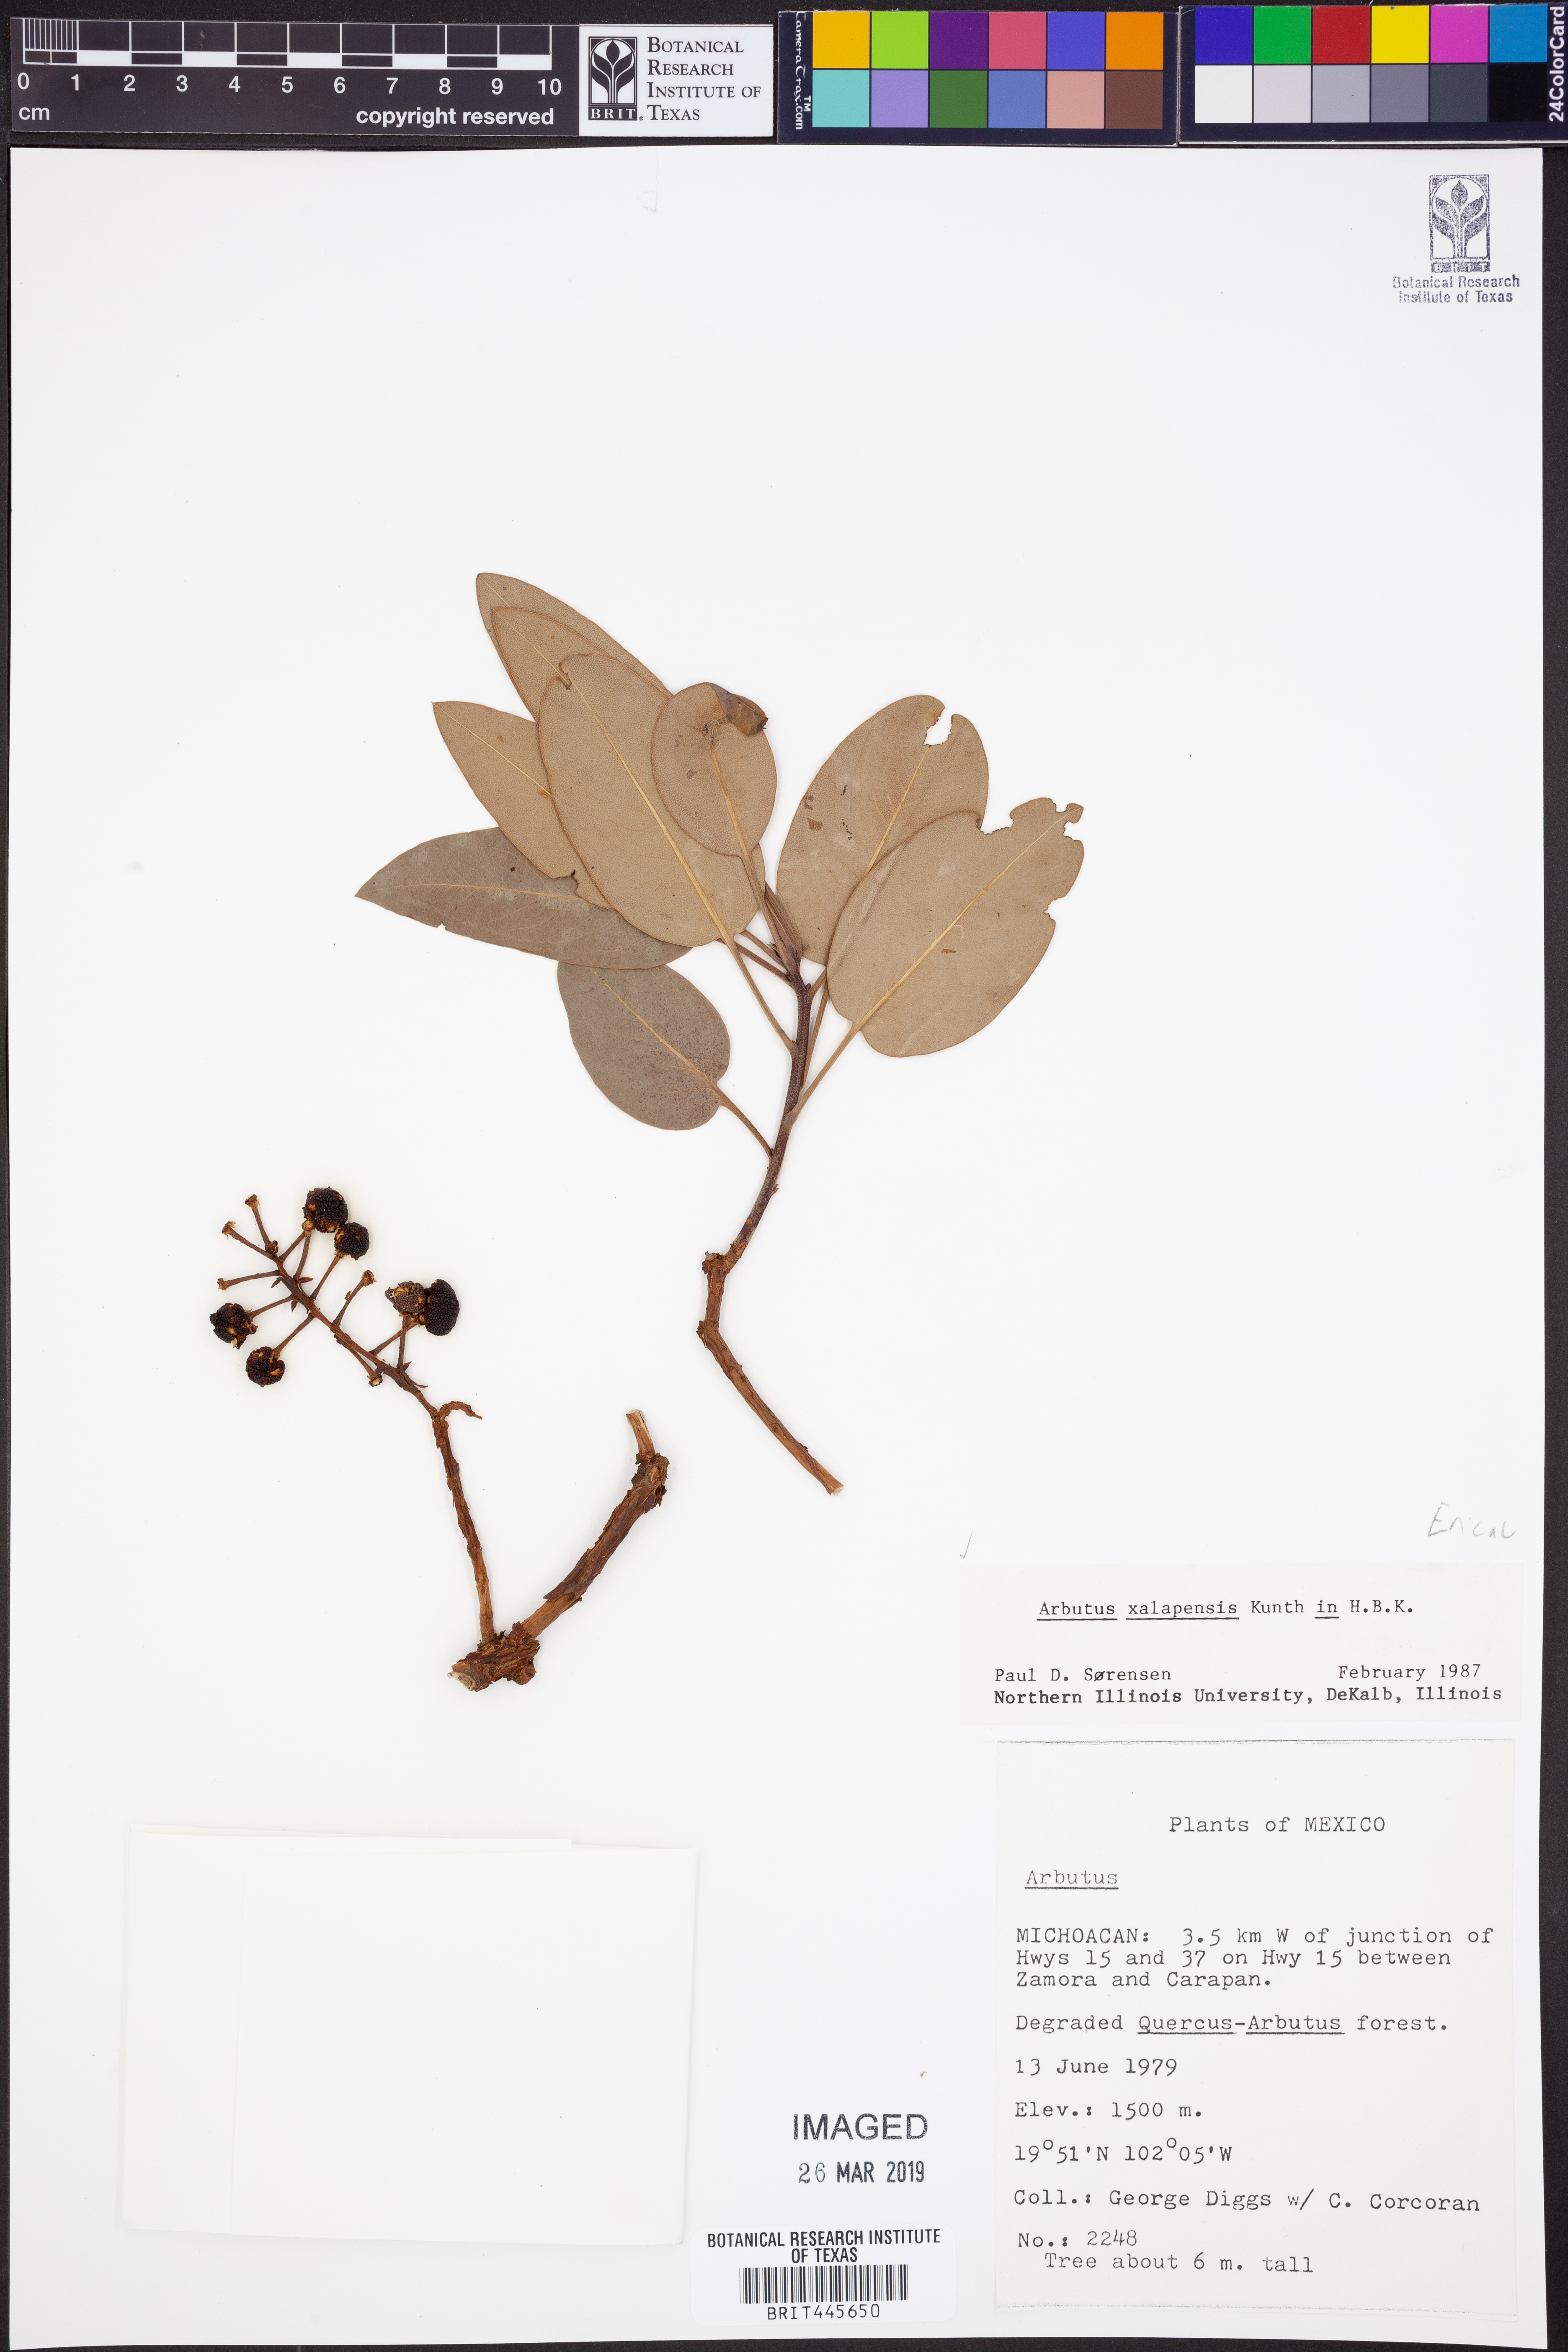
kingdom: Plantae
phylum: Tracheophyta
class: Magnoliopsida
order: Ericales
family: Ericaceae
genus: Arbutus
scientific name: Arbutus xalapensis
